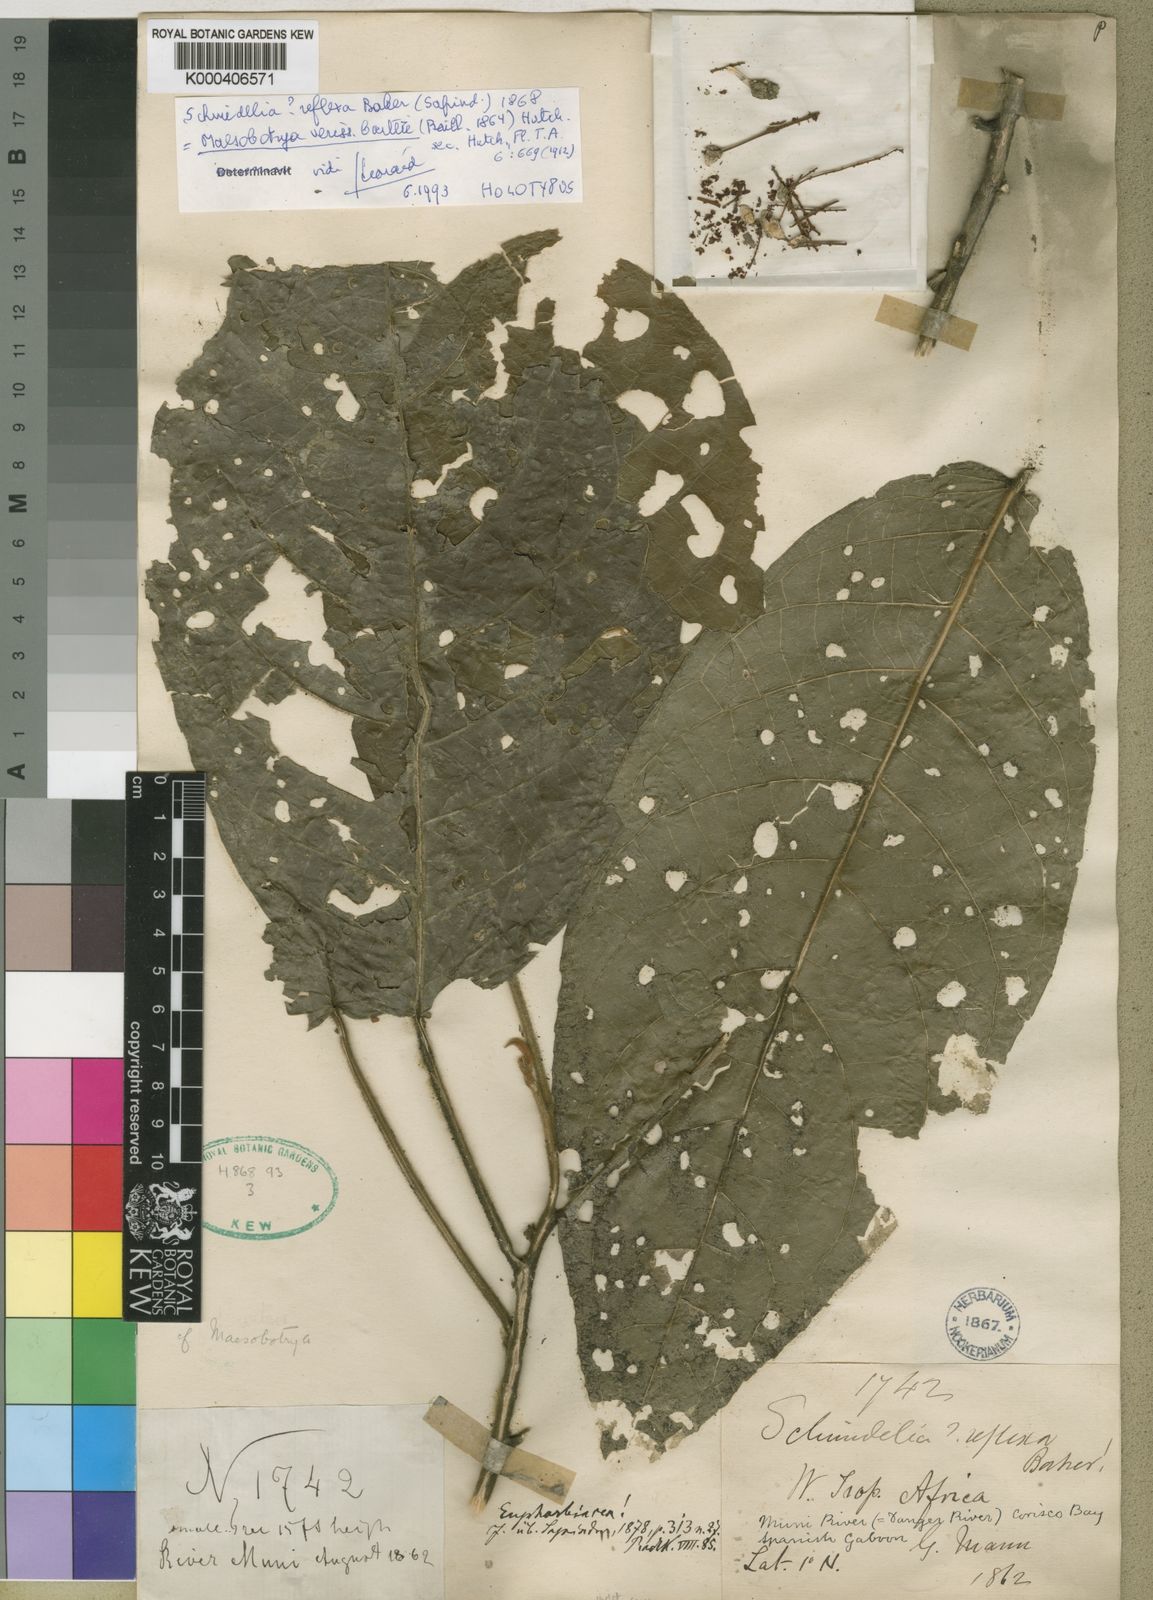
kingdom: Plantae
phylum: Tracheophyta
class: Magnoliopsida
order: Malpighiales
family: Phyllanthaceae
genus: Maesobotrya
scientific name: Maesobotrya barteri
